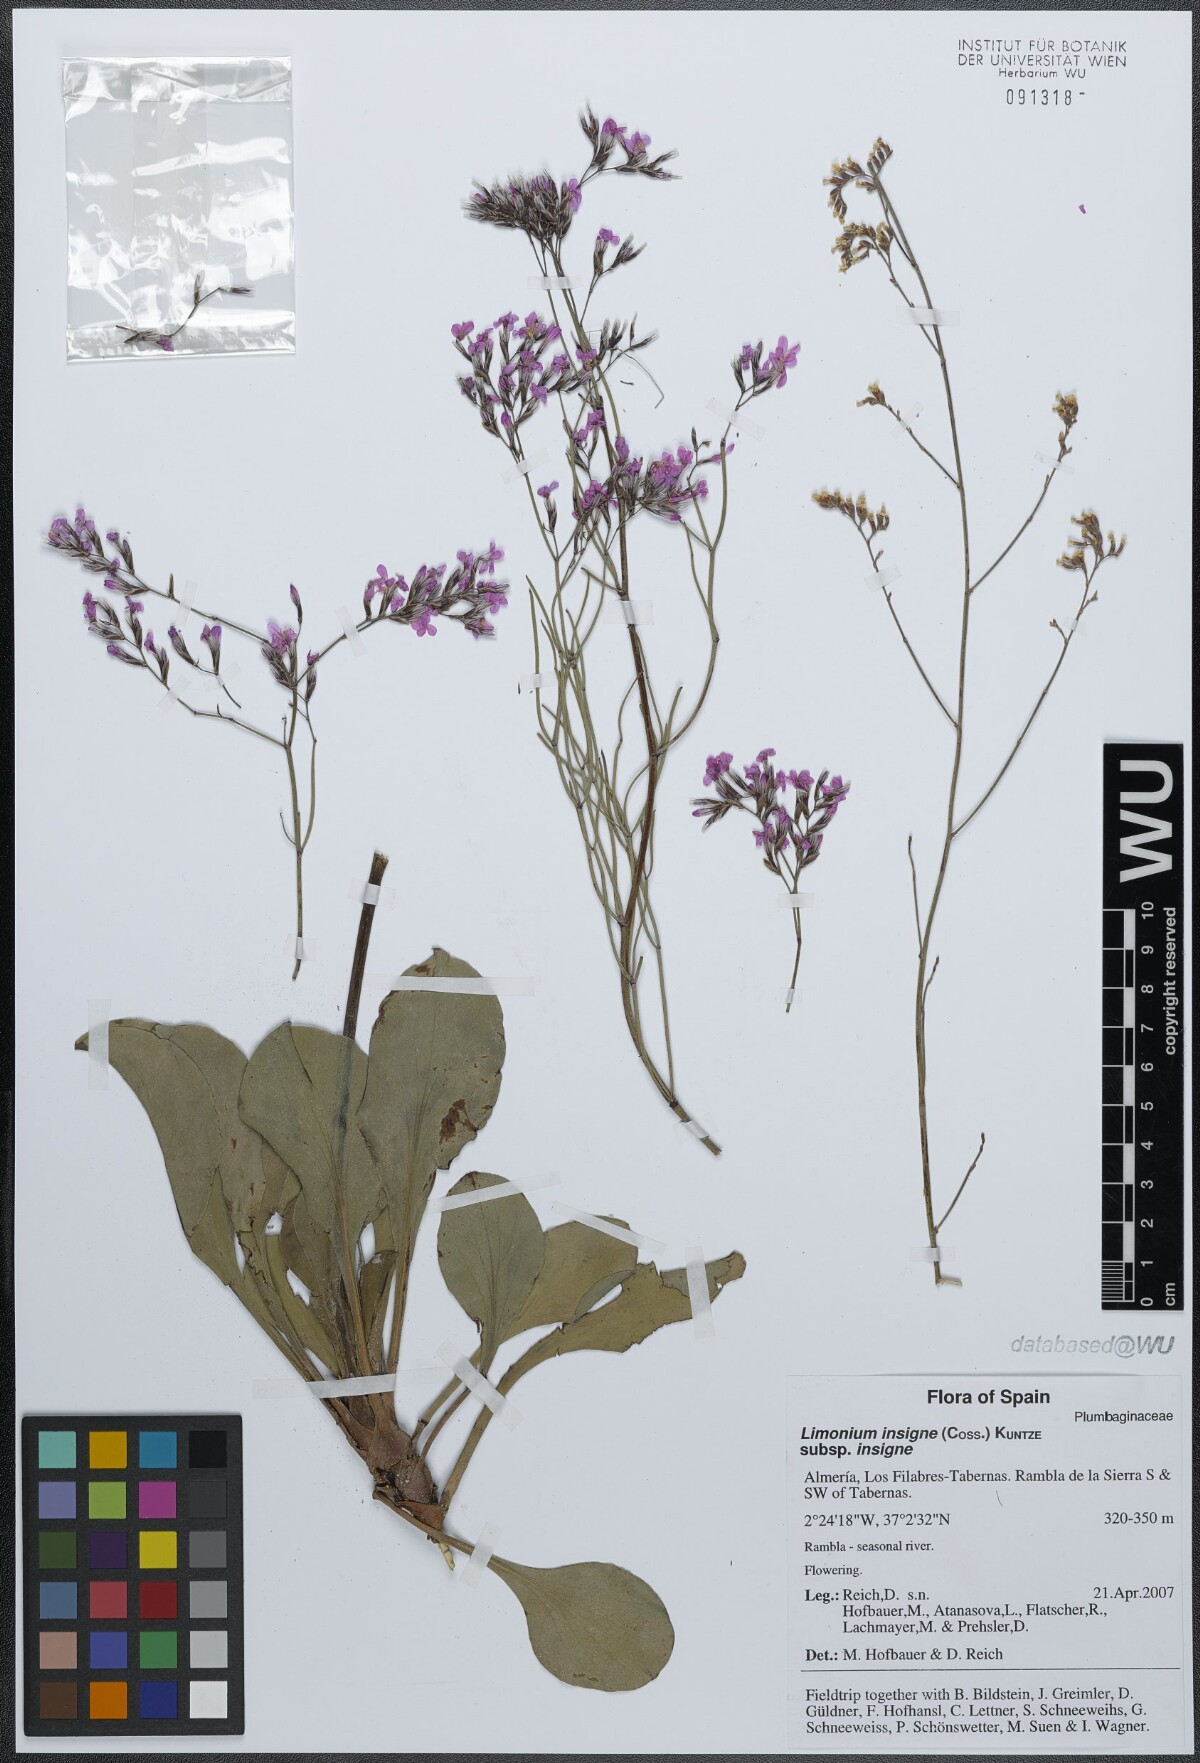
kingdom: Plantae
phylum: Tracheophyta
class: Magnoliopsida
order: Caryophyllales
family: Plumbaginaceae
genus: Limonium
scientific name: Limonium insigne
